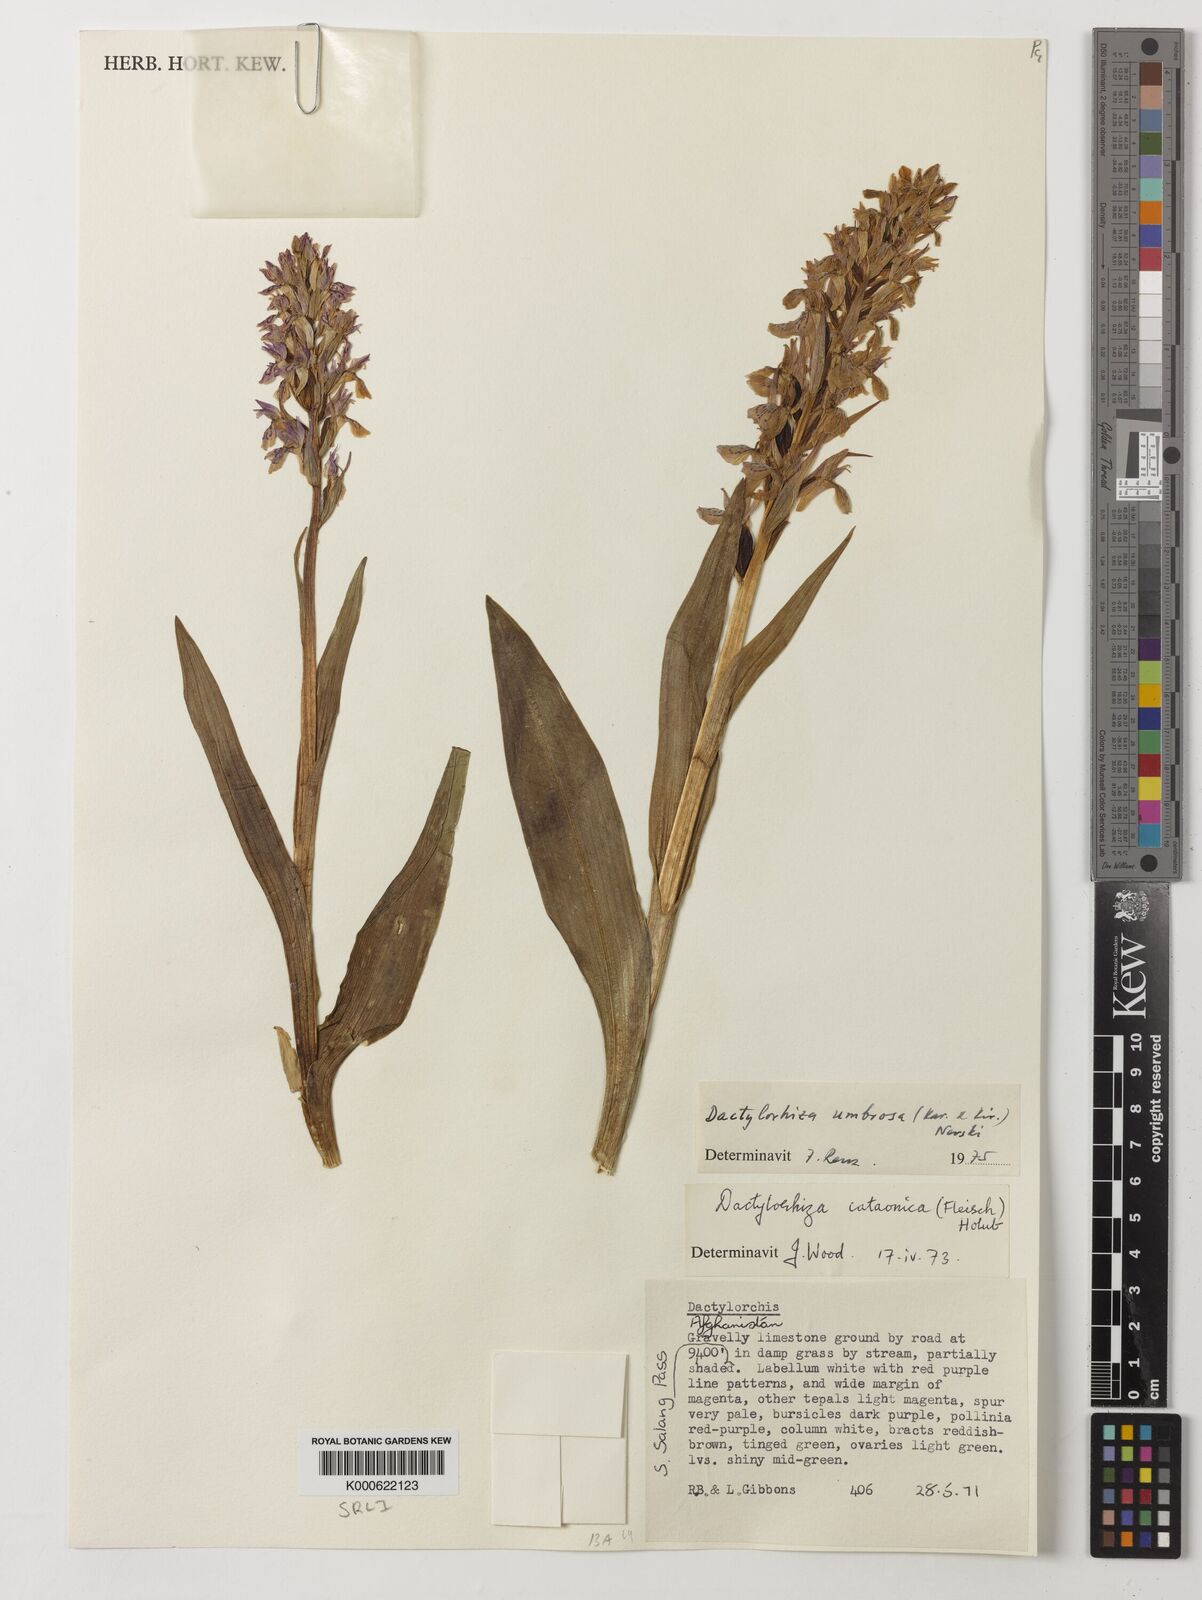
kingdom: Plantae
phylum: Tracheophyta
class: Liliopsida
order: Asparagales
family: Orchidaceae
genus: Dactylorhiza
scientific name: Dactylorhiza
